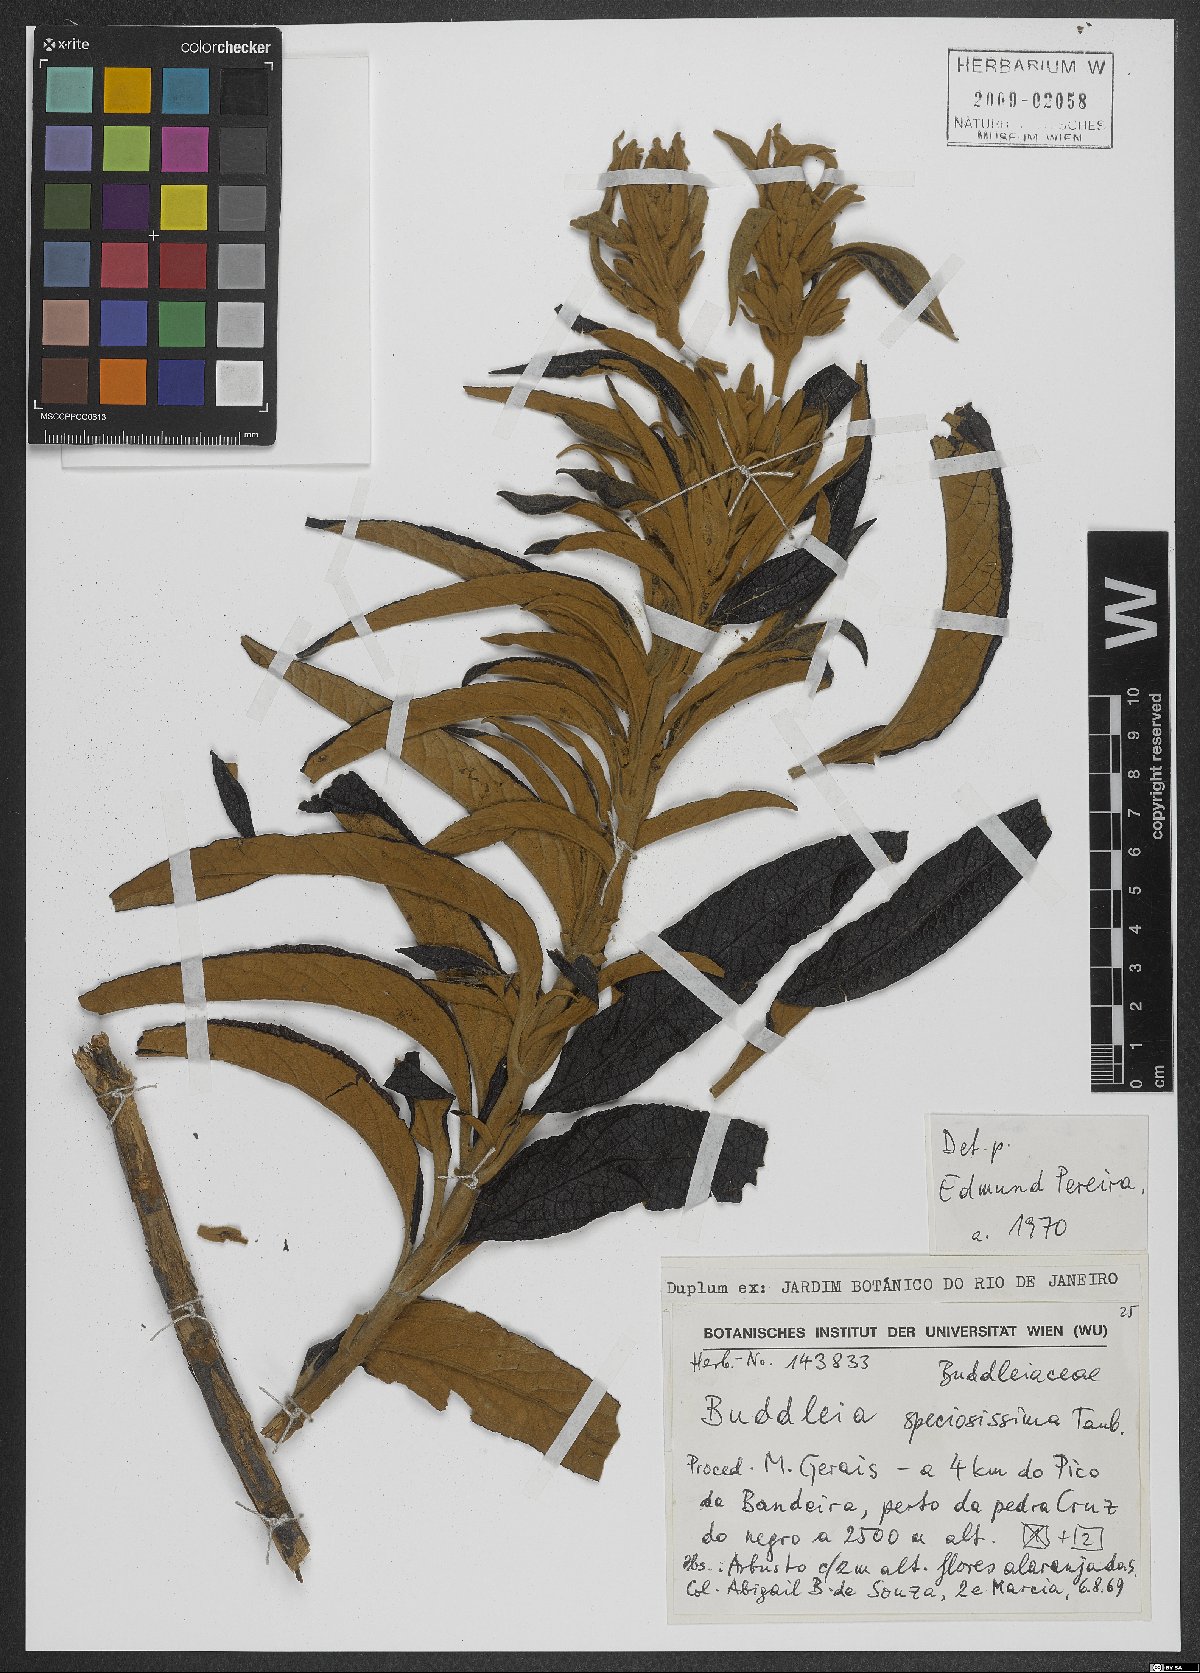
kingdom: Plantae
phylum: Tracheophyta
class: Magnoliopsida
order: Lamiales
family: Scrophulariaceae
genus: Buddleja
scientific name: Buddleja speciosissima
